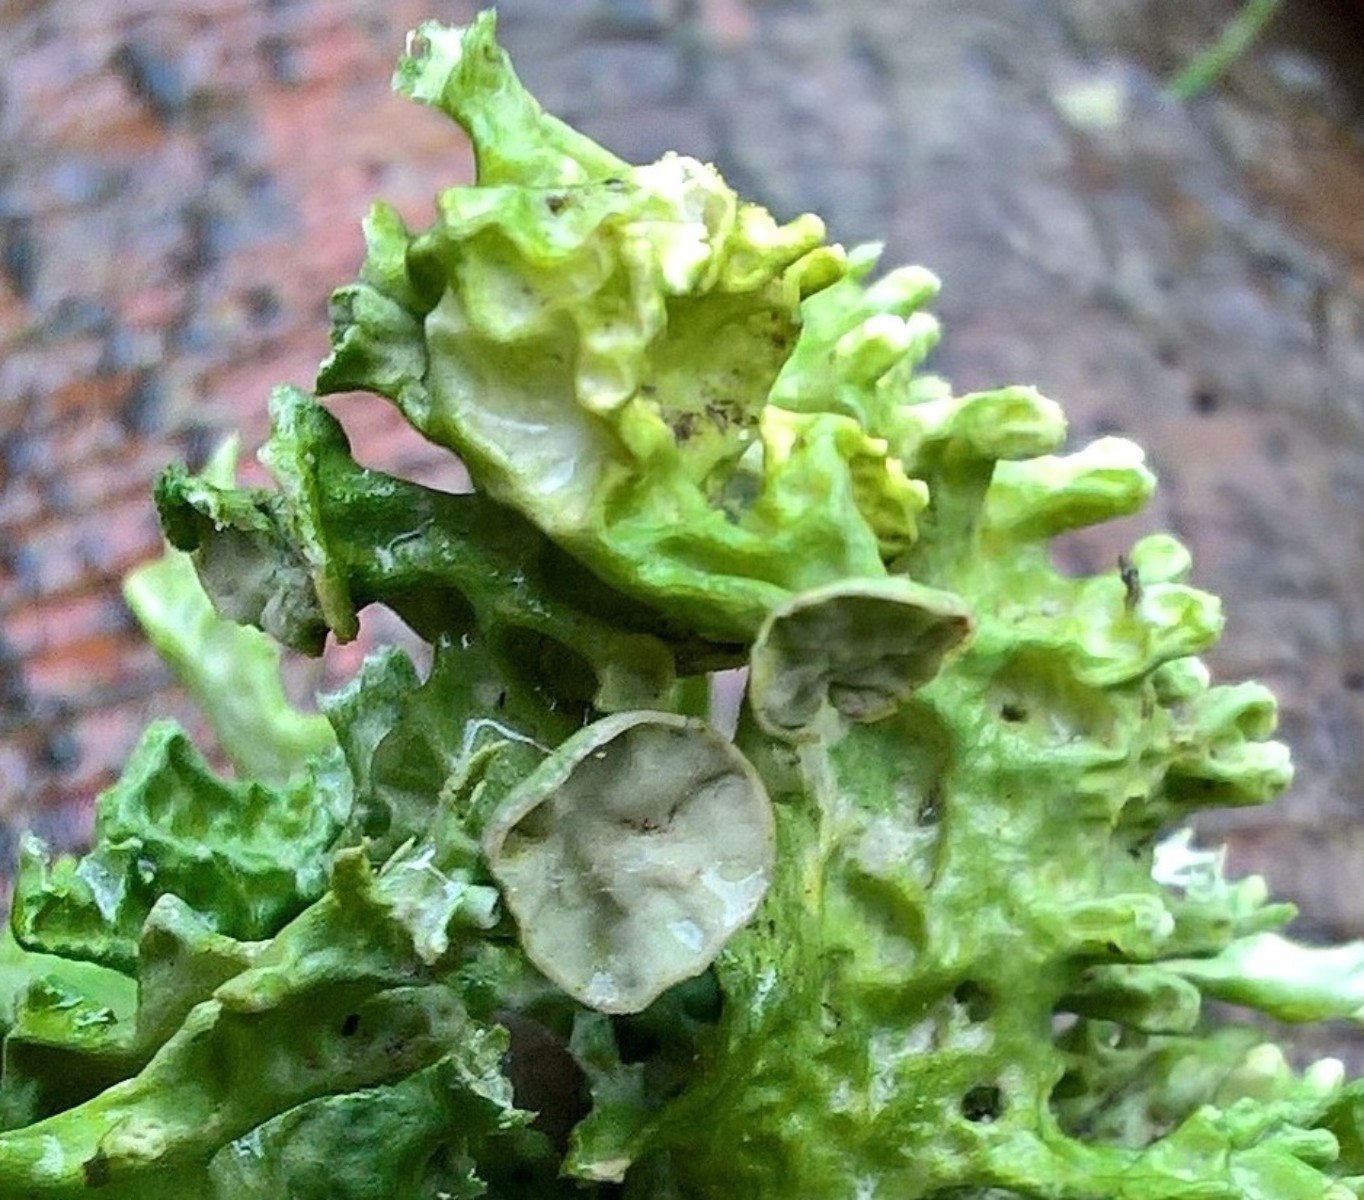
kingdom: Fungi
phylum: Ascomycota
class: Lecanoromycetes
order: Lecanorales
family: Ramalinaceae
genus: Ramalina
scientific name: Ramalina fastigiata
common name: tue-grenlav
